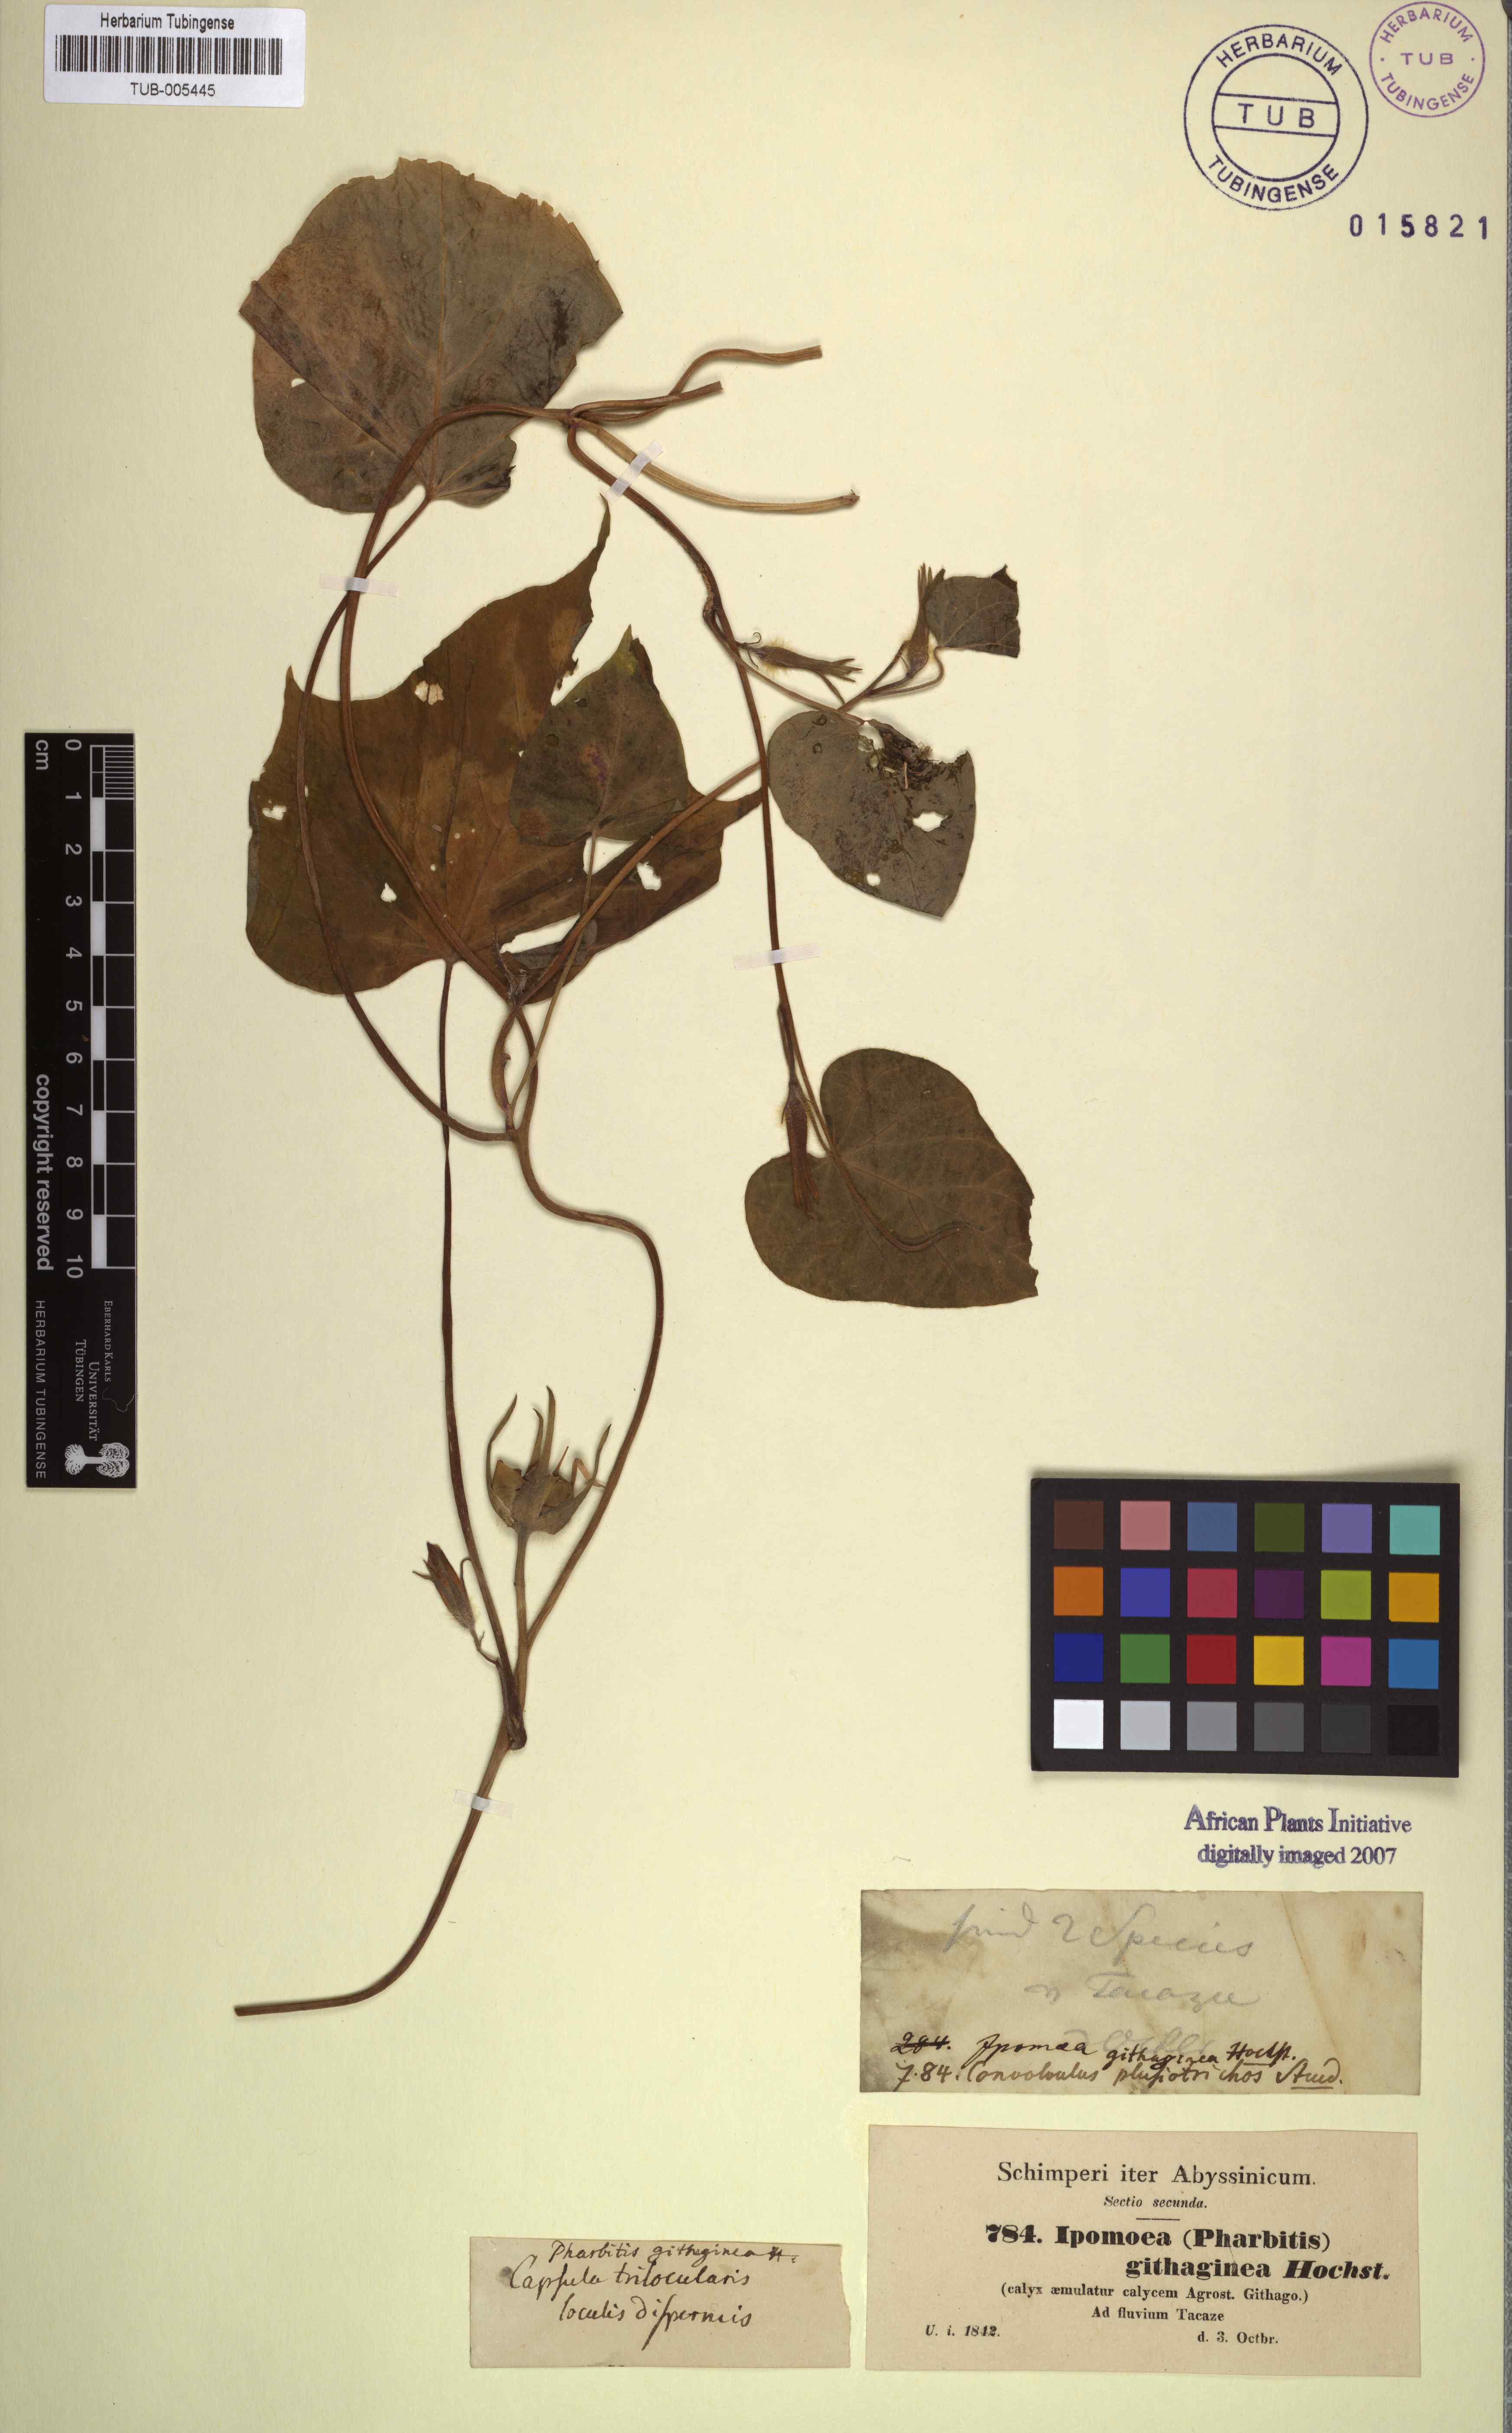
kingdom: Plantae
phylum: Tracheophyta
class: Magnoliopsida
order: Solanales
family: Convolvulaceae
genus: Ipomoea
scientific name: Ipomoea nil
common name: Japanese morning-glory
